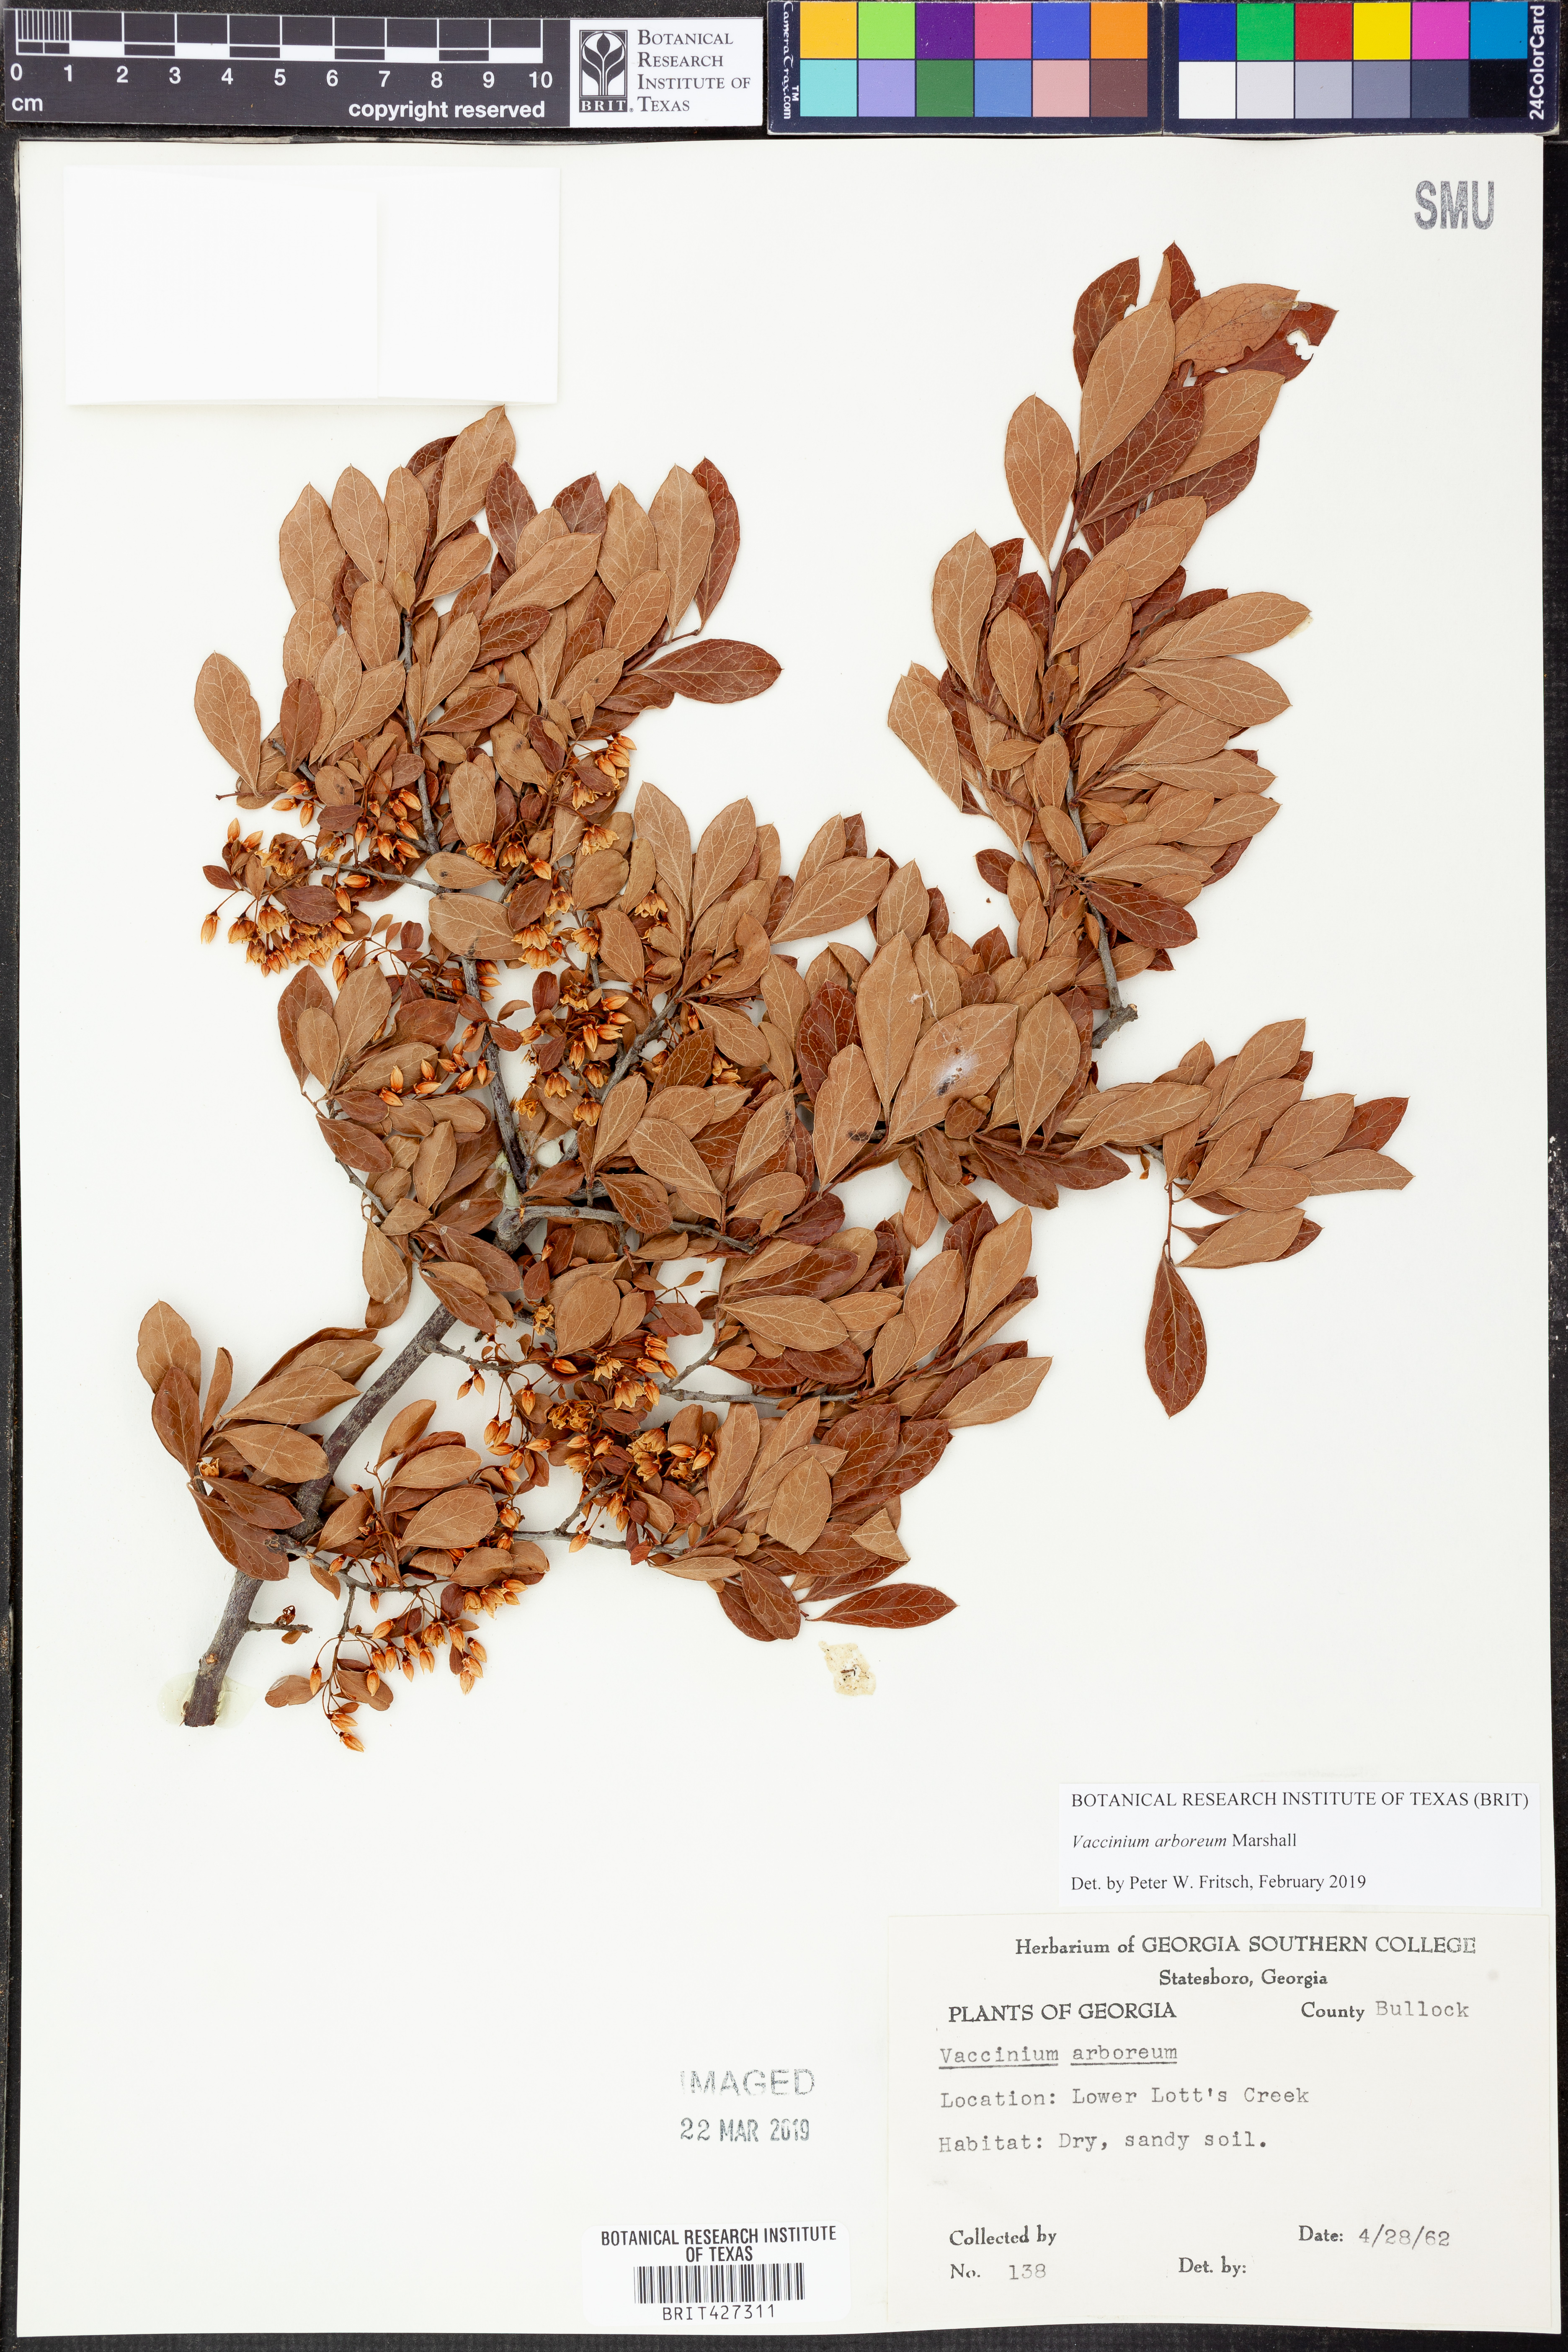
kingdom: Plantae
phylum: Tracheophyta
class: Magnoliopsida
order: Ericales
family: Ericaceae
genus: Vaccinium
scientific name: Vaccinium arboreum
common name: Farkleberry
